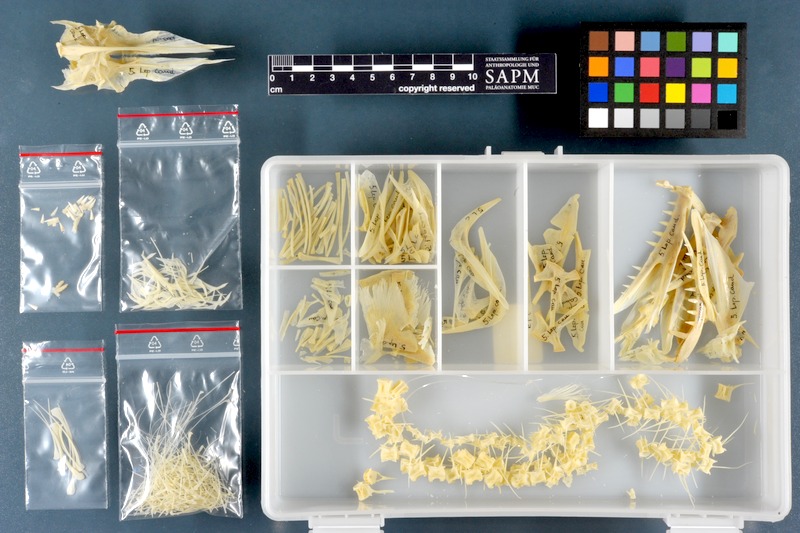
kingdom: Animalia
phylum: Chordata
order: Perciformes
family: Trichiuridae
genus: Lepidopus
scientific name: Lepidopus caudatus
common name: Silver scabbardfish
